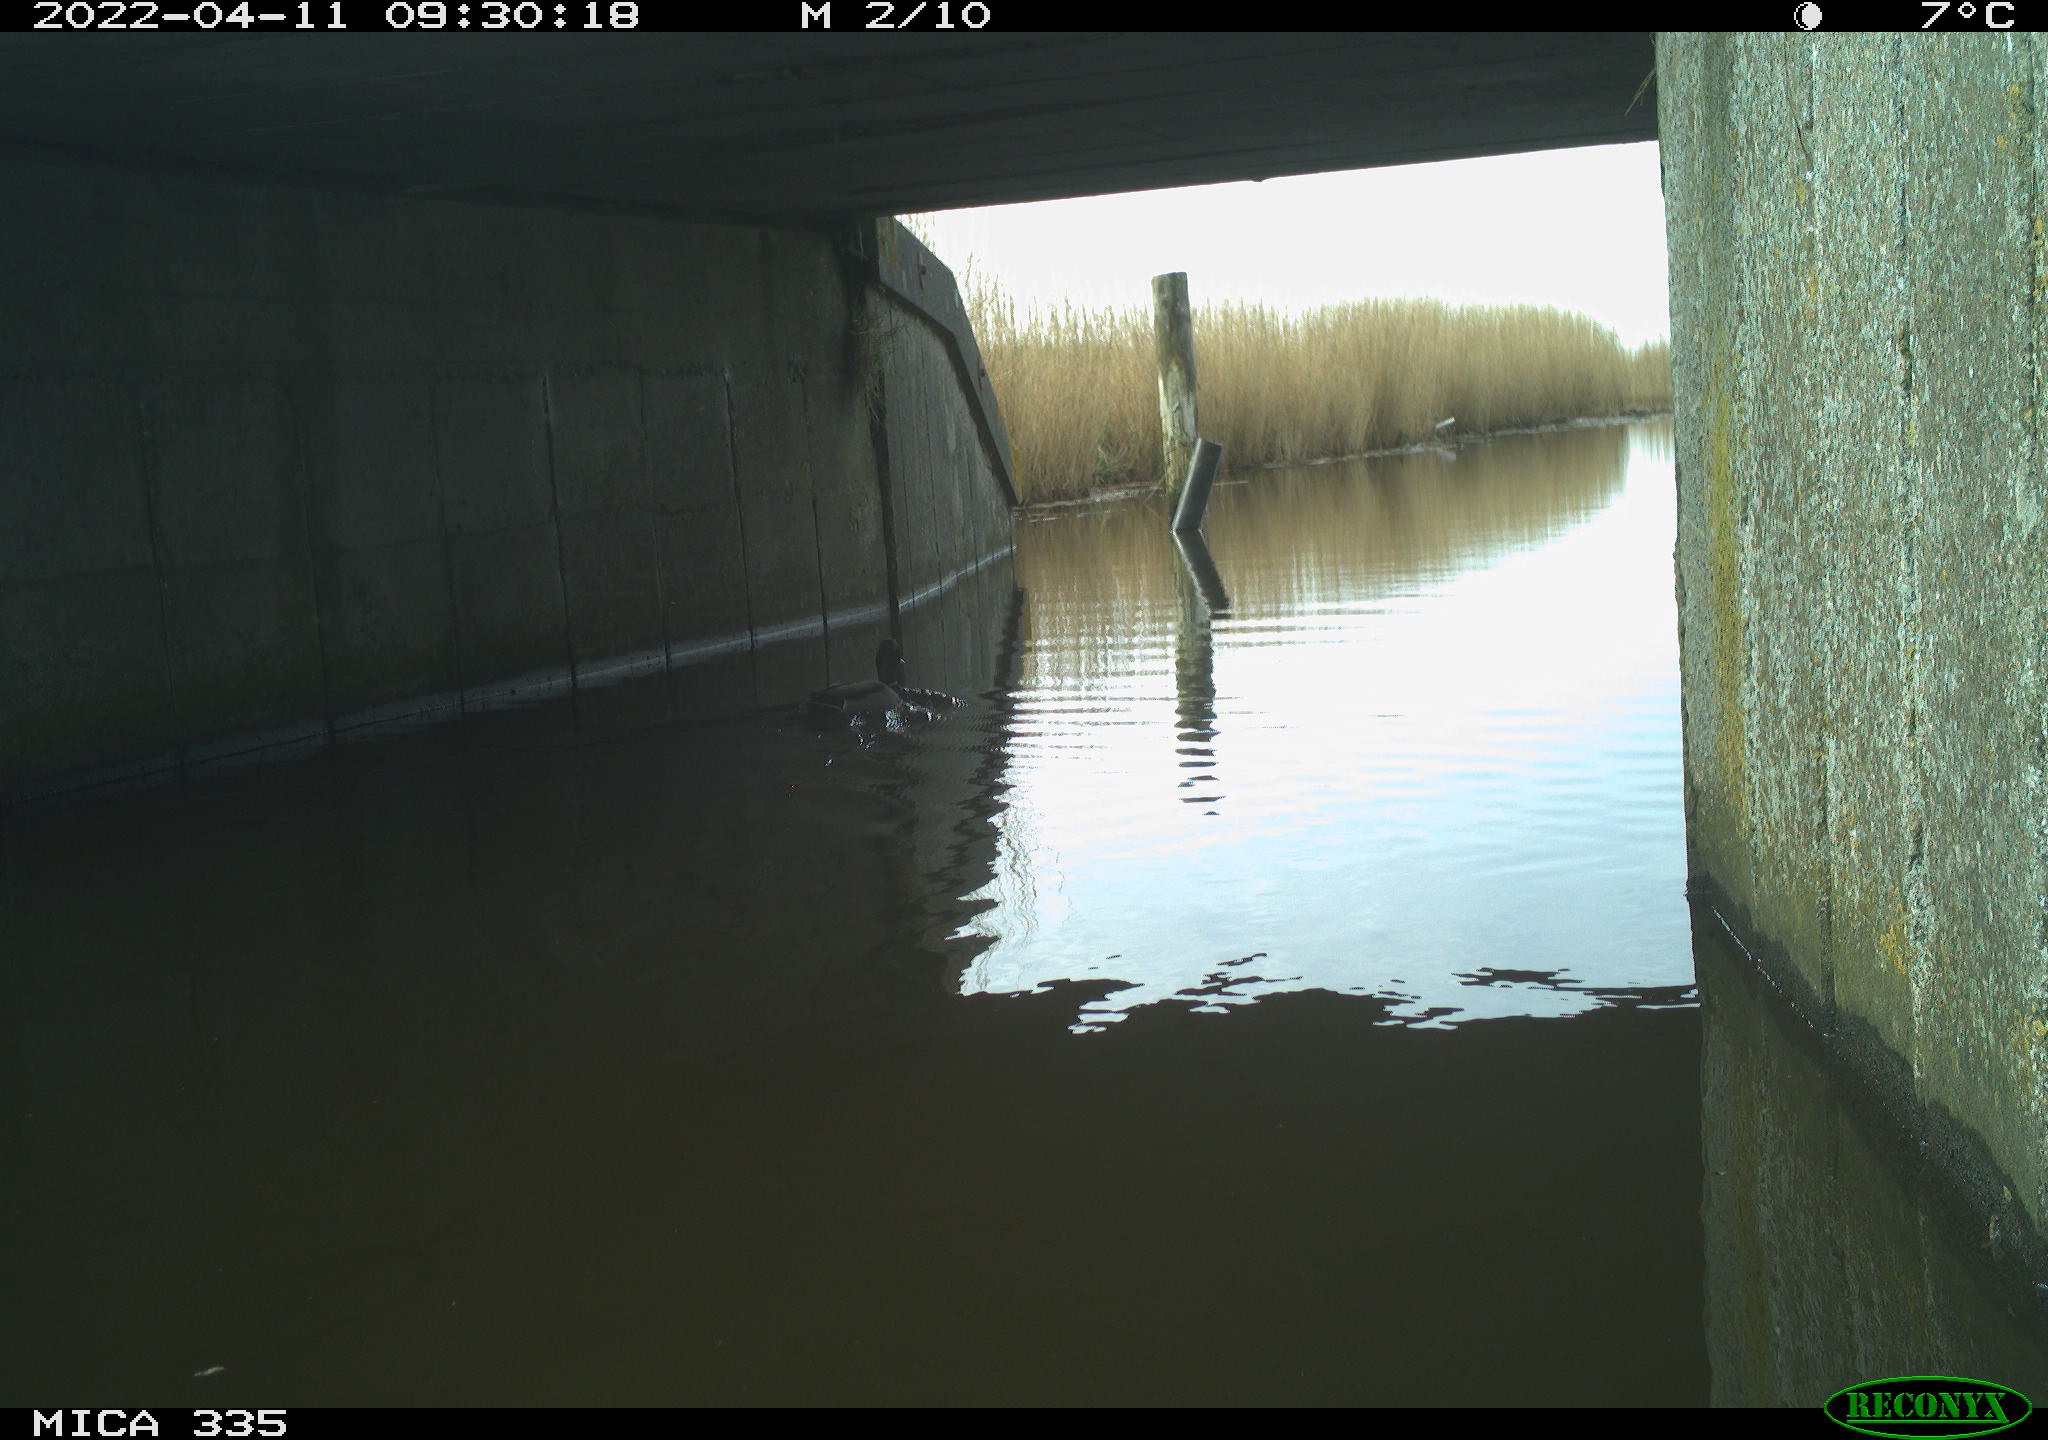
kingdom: Animalia
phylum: Chordata
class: Aves
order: Anseriformes
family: Anatidae
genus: Anas
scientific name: Anas platyrhynchos
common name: Mallard
